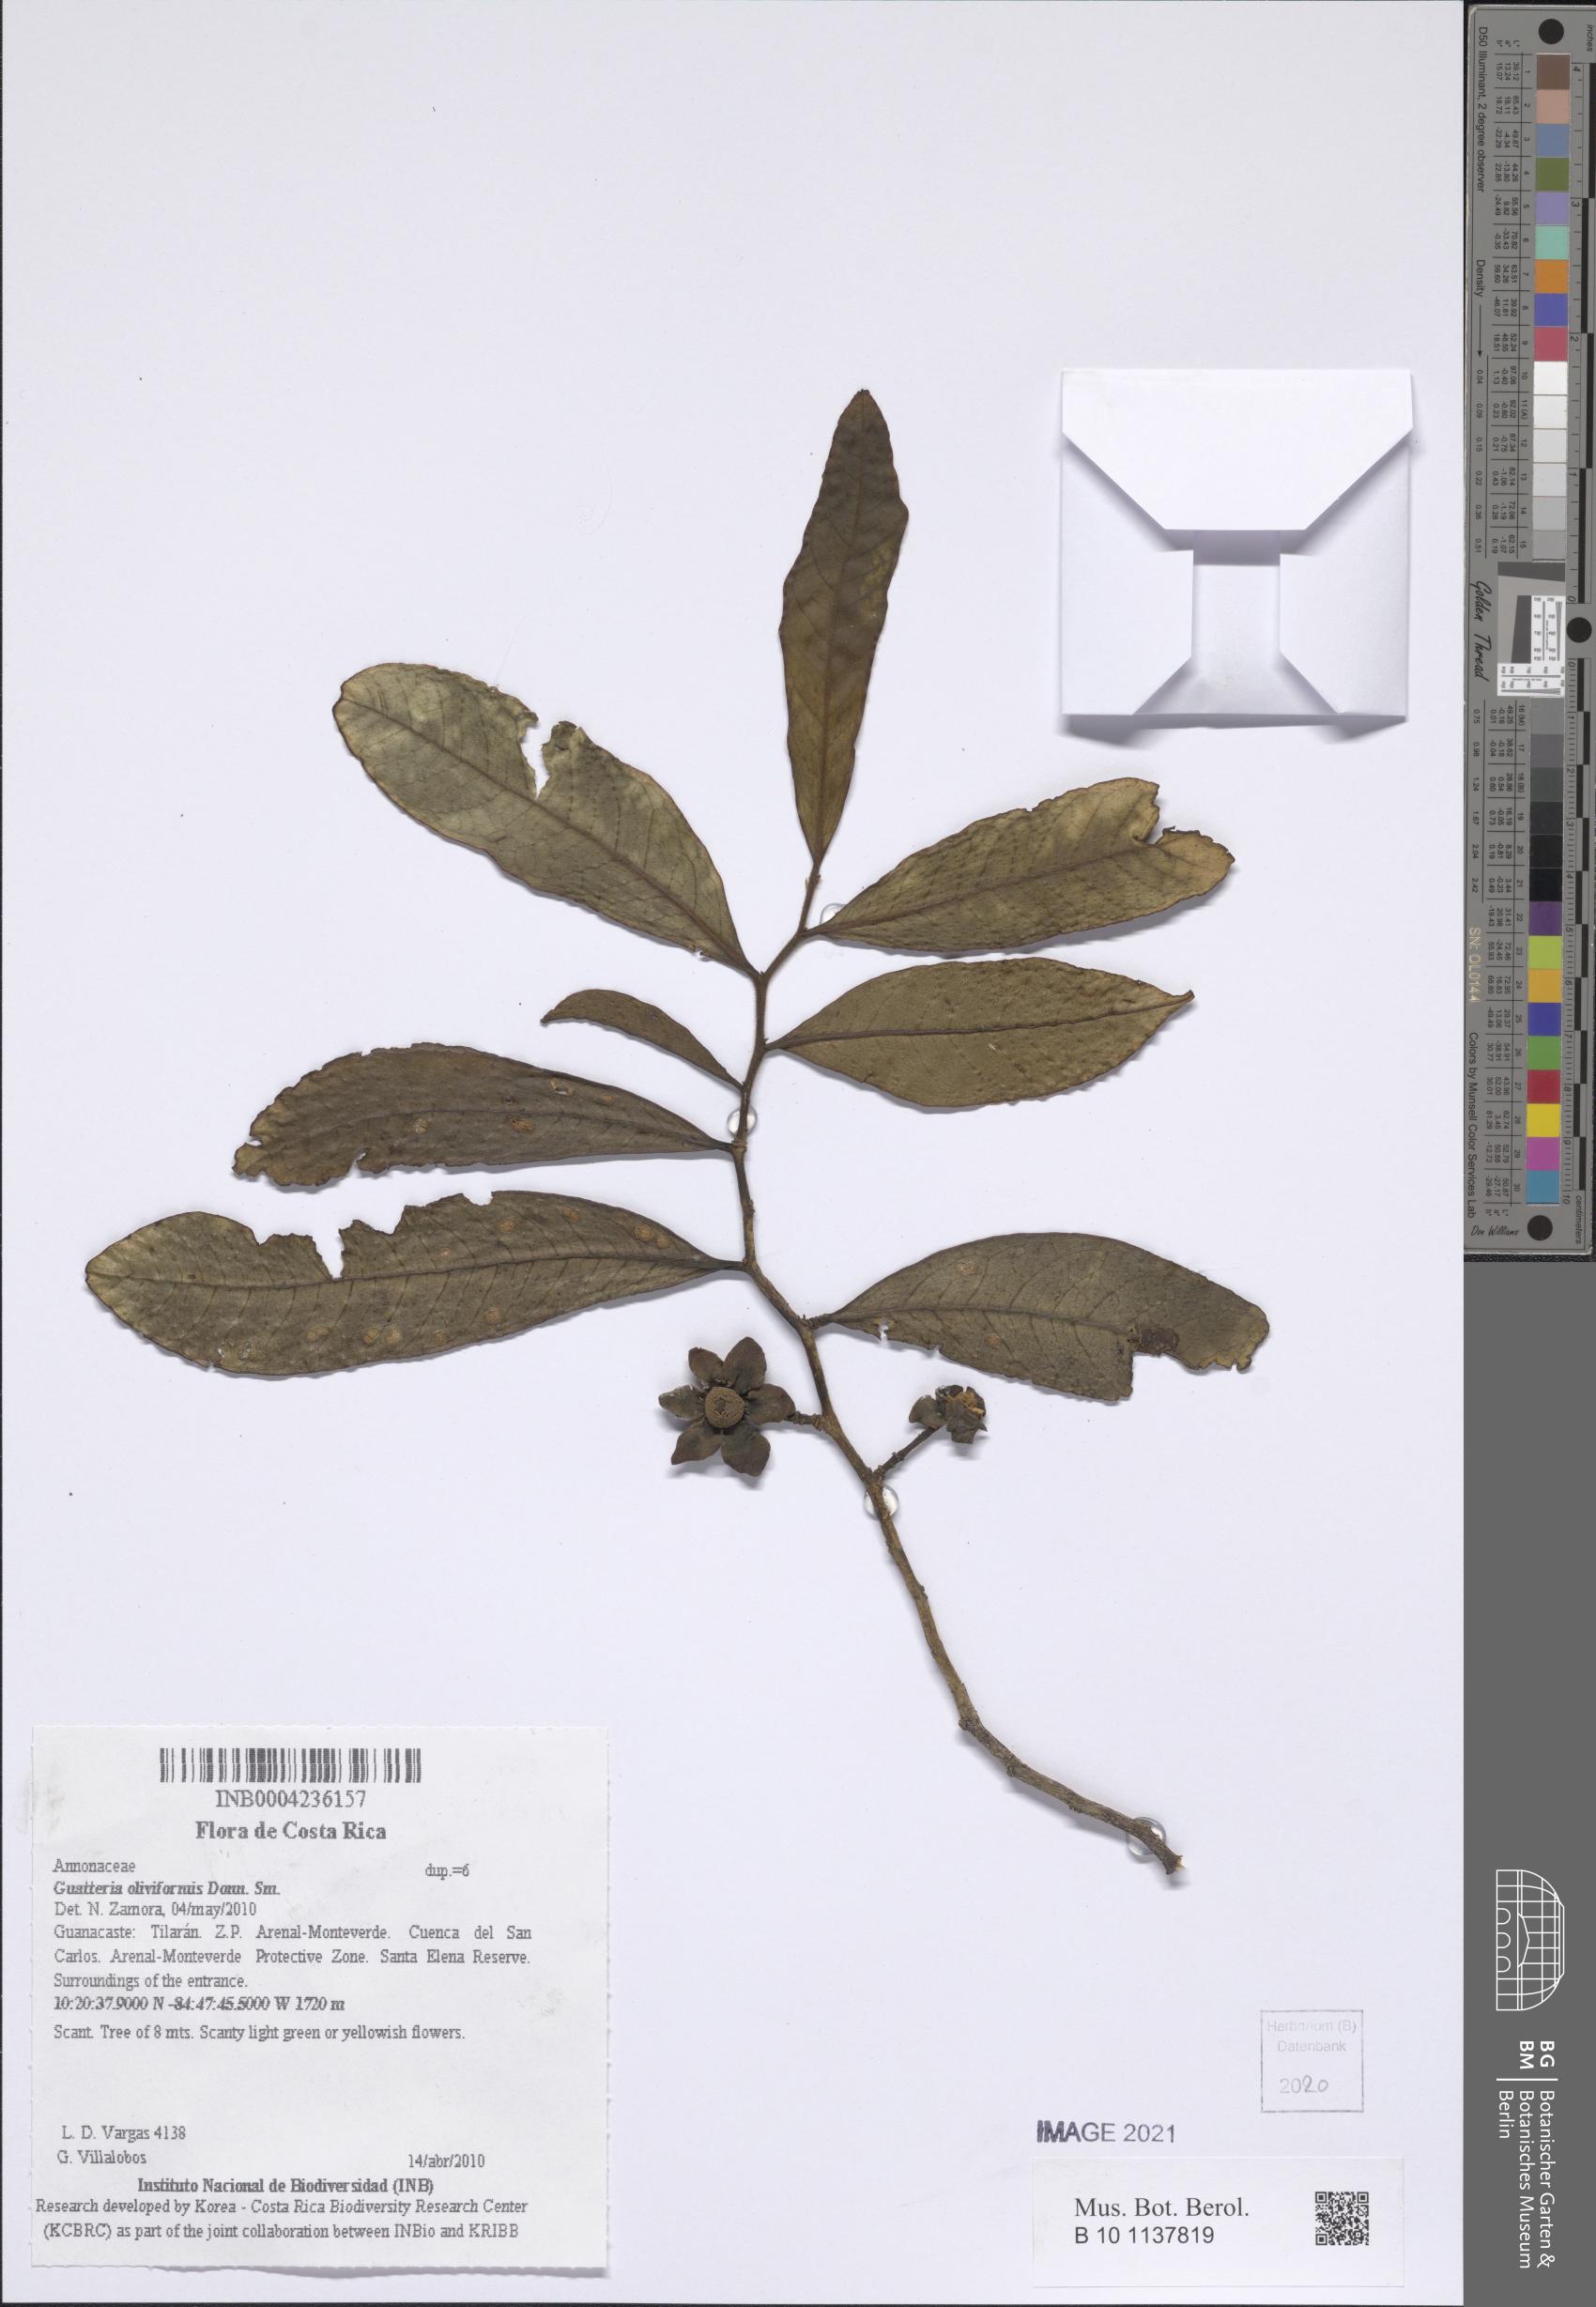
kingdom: Plantae
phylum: Tracheophyta
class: Magnoliopsida
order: Magnoliales
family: Annonaceae
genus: Guatteria
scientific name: Guatteria oliviformis
